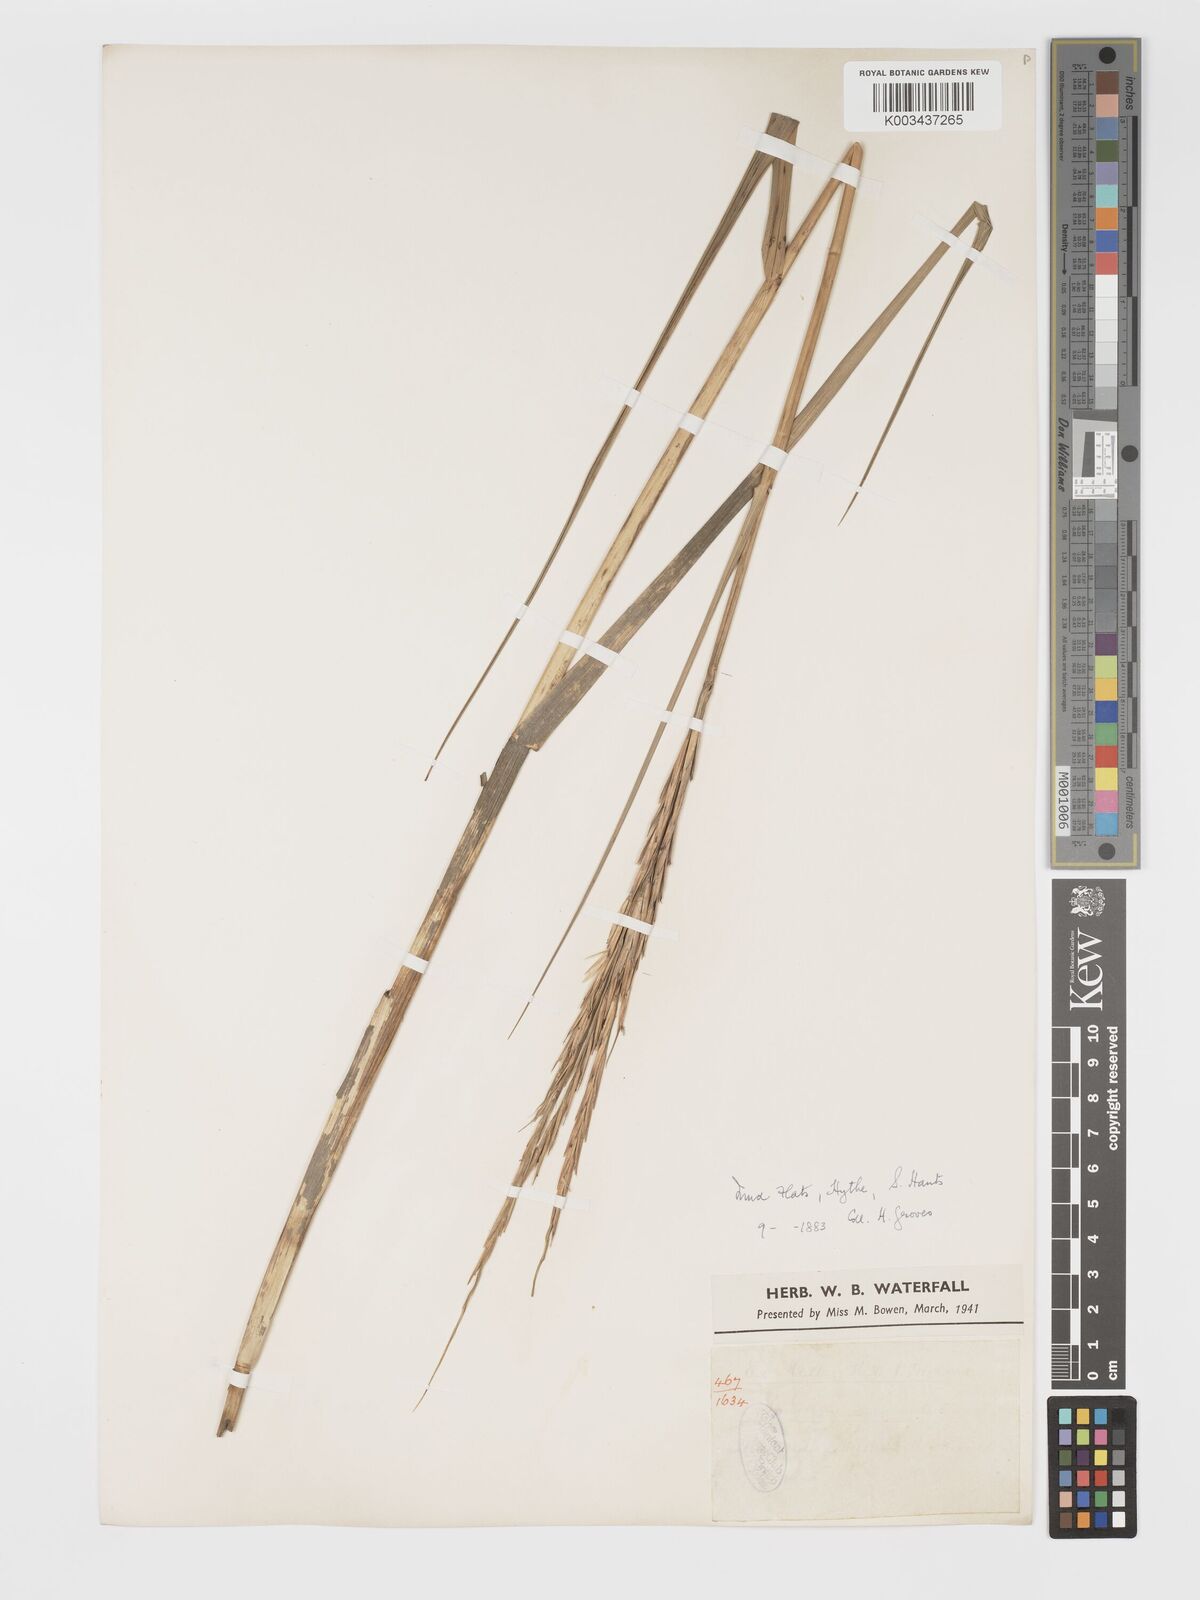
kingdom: Plantae
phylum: Tracheophyta
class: Liliopsida
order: Poales
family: Poaceae
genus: Sporobolus
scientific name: Sporobolus townsendii
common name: Townsend's cordgrass
